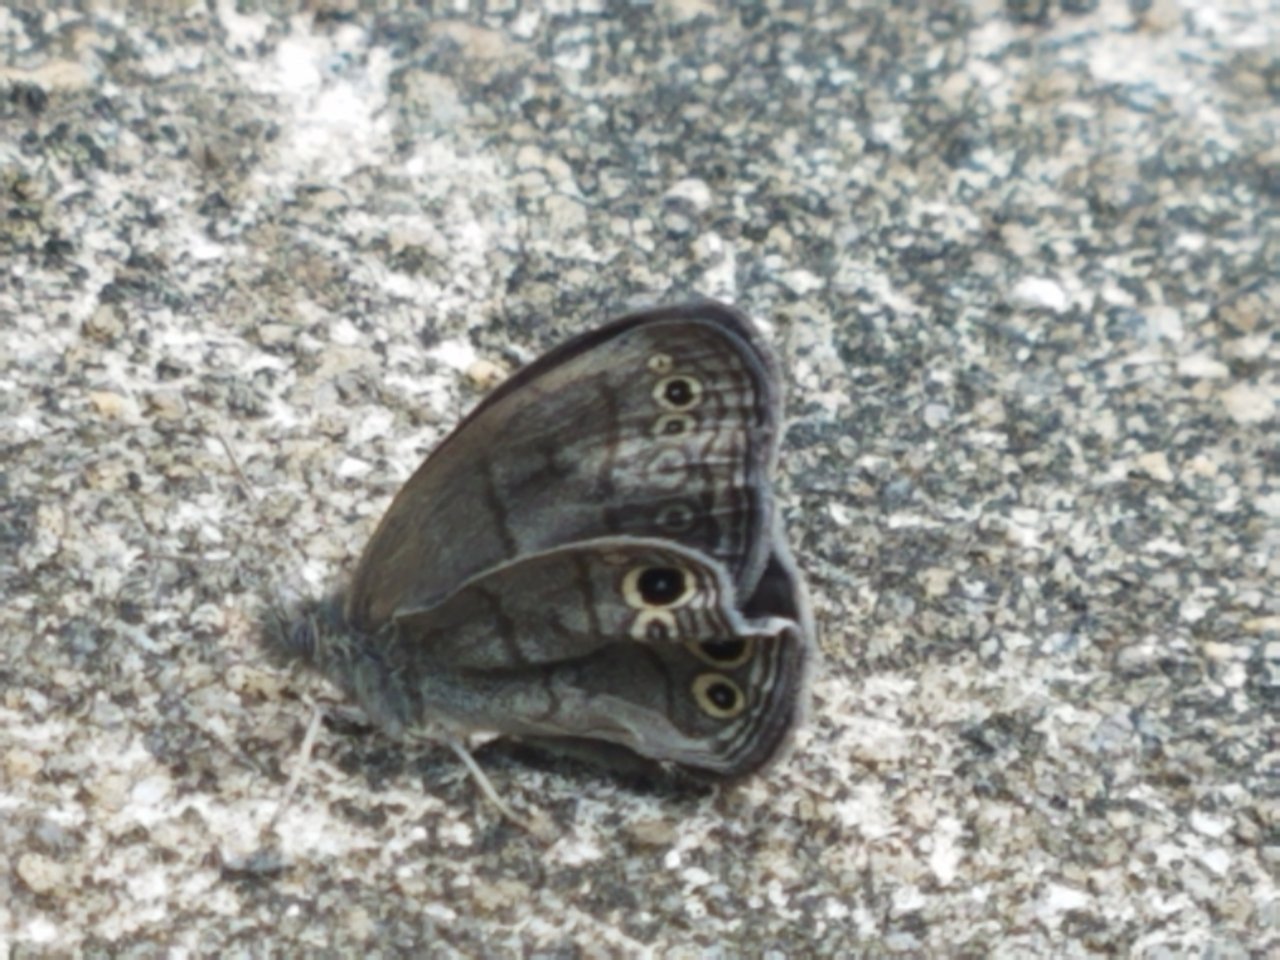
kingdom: Animalia
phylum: Arthropoda
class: Insecta
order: Lepidoptera
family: Nymphalidae
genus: Hermeuptychia
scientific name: Hermeuptychia hermes
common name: Carolina Satyr
